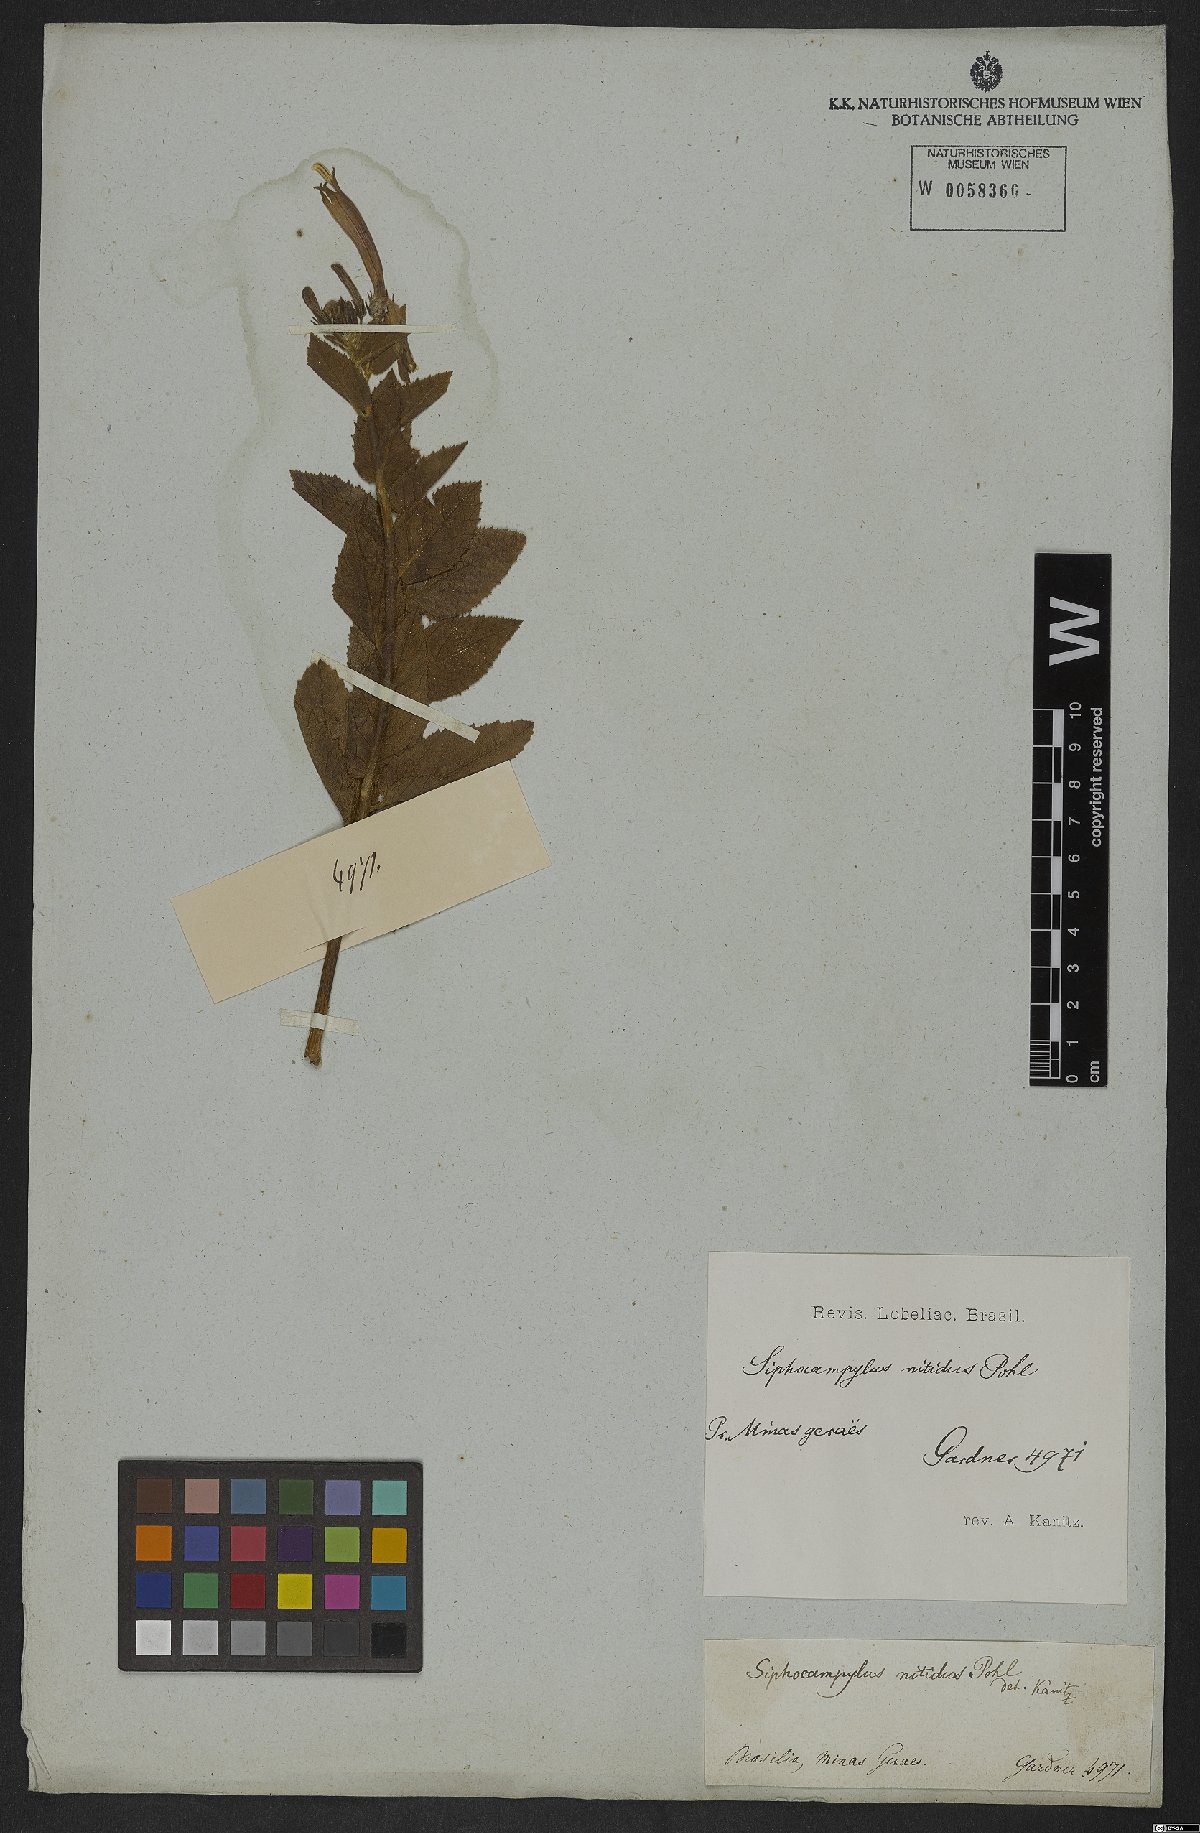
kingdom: Plantae
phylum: Tracheophyta
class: Magnoliopsida
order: Asterales
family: Campanulaceae
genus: Siphocampylus
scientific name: Siphocampylus nitidus
